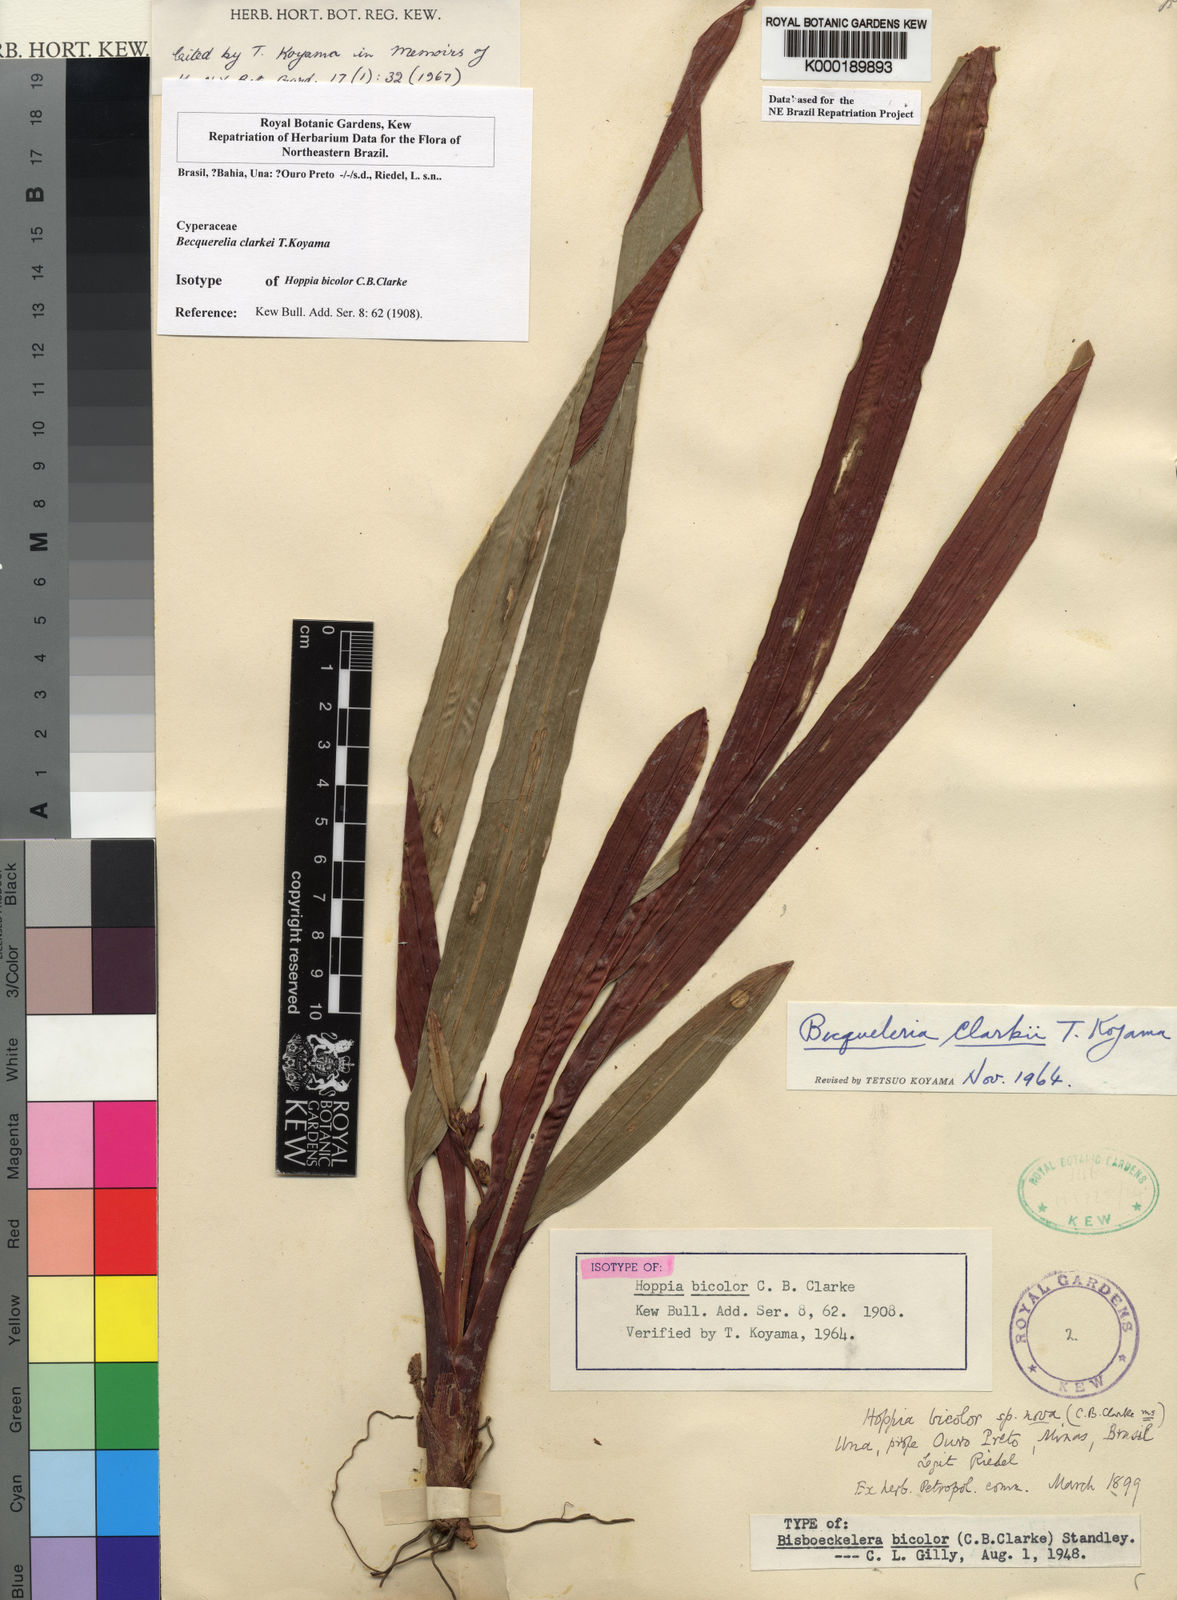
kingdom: Plantae
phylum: Tracheophyta
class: Liliopsida
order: Poales
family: Cyperaceae
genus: Becquerelia
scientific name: Becquerelia clarkei
